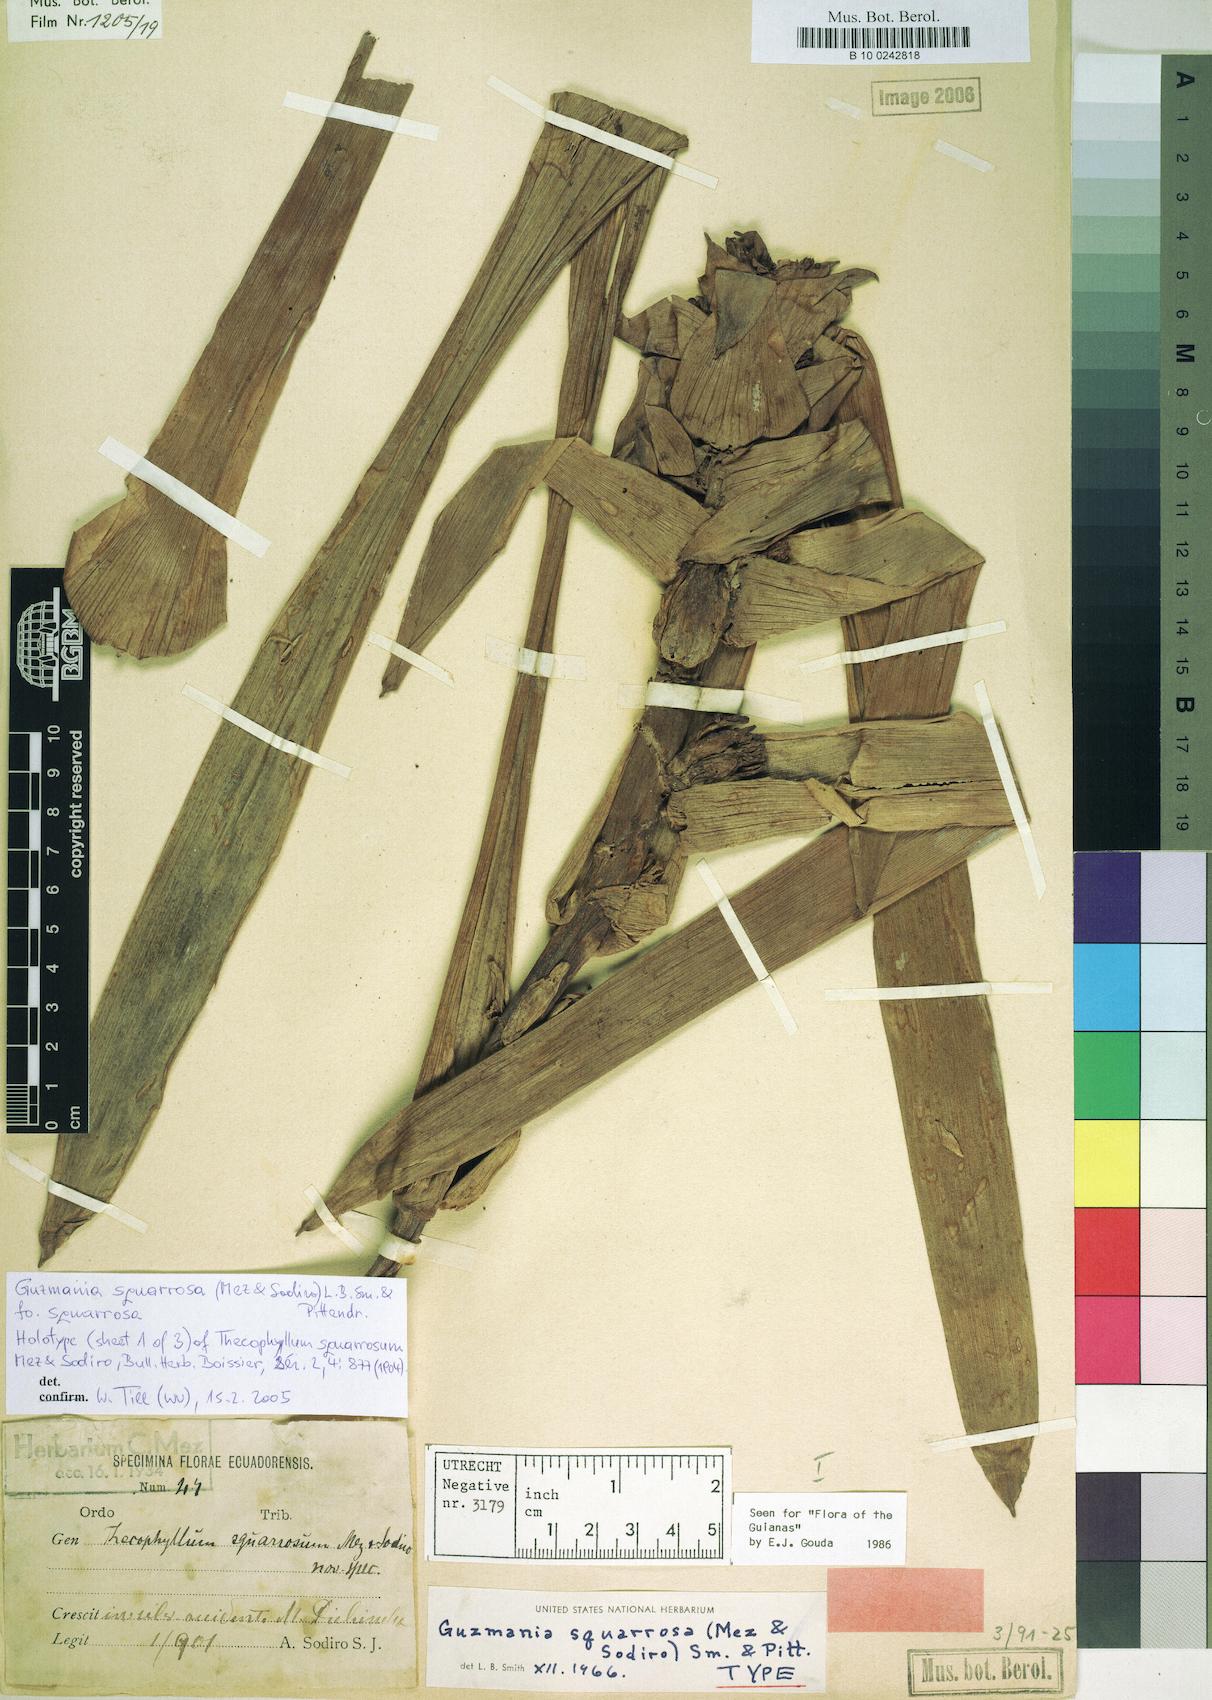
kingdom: Plantae
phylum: Tracheophyta
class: Liliopsida
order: Poales
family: Bromeliaceae
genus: Guzmania
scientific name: Guzmania squarrosa
